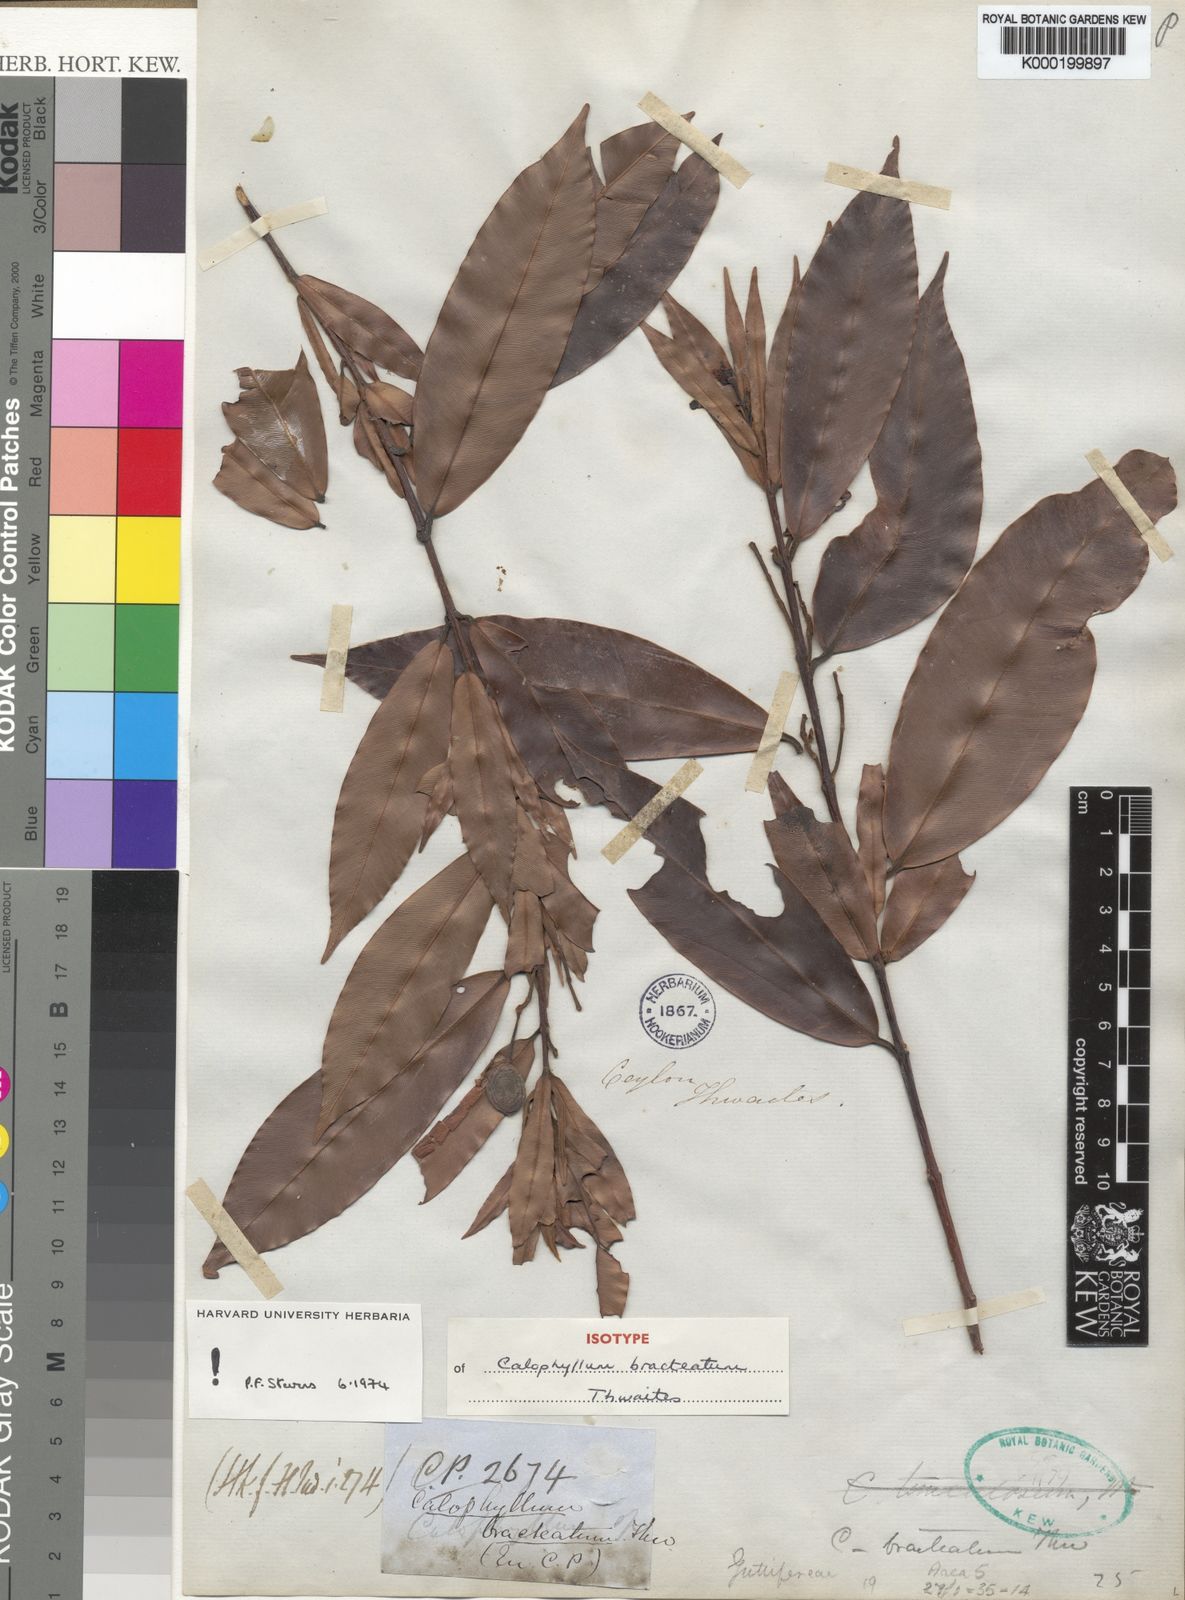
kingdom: Plantae
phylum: Tracheophyta
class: Magnoliopsida
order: Malpighiales
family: Calophyllaceae
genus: Calophyllum
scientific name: Calophyllum bracteatum
